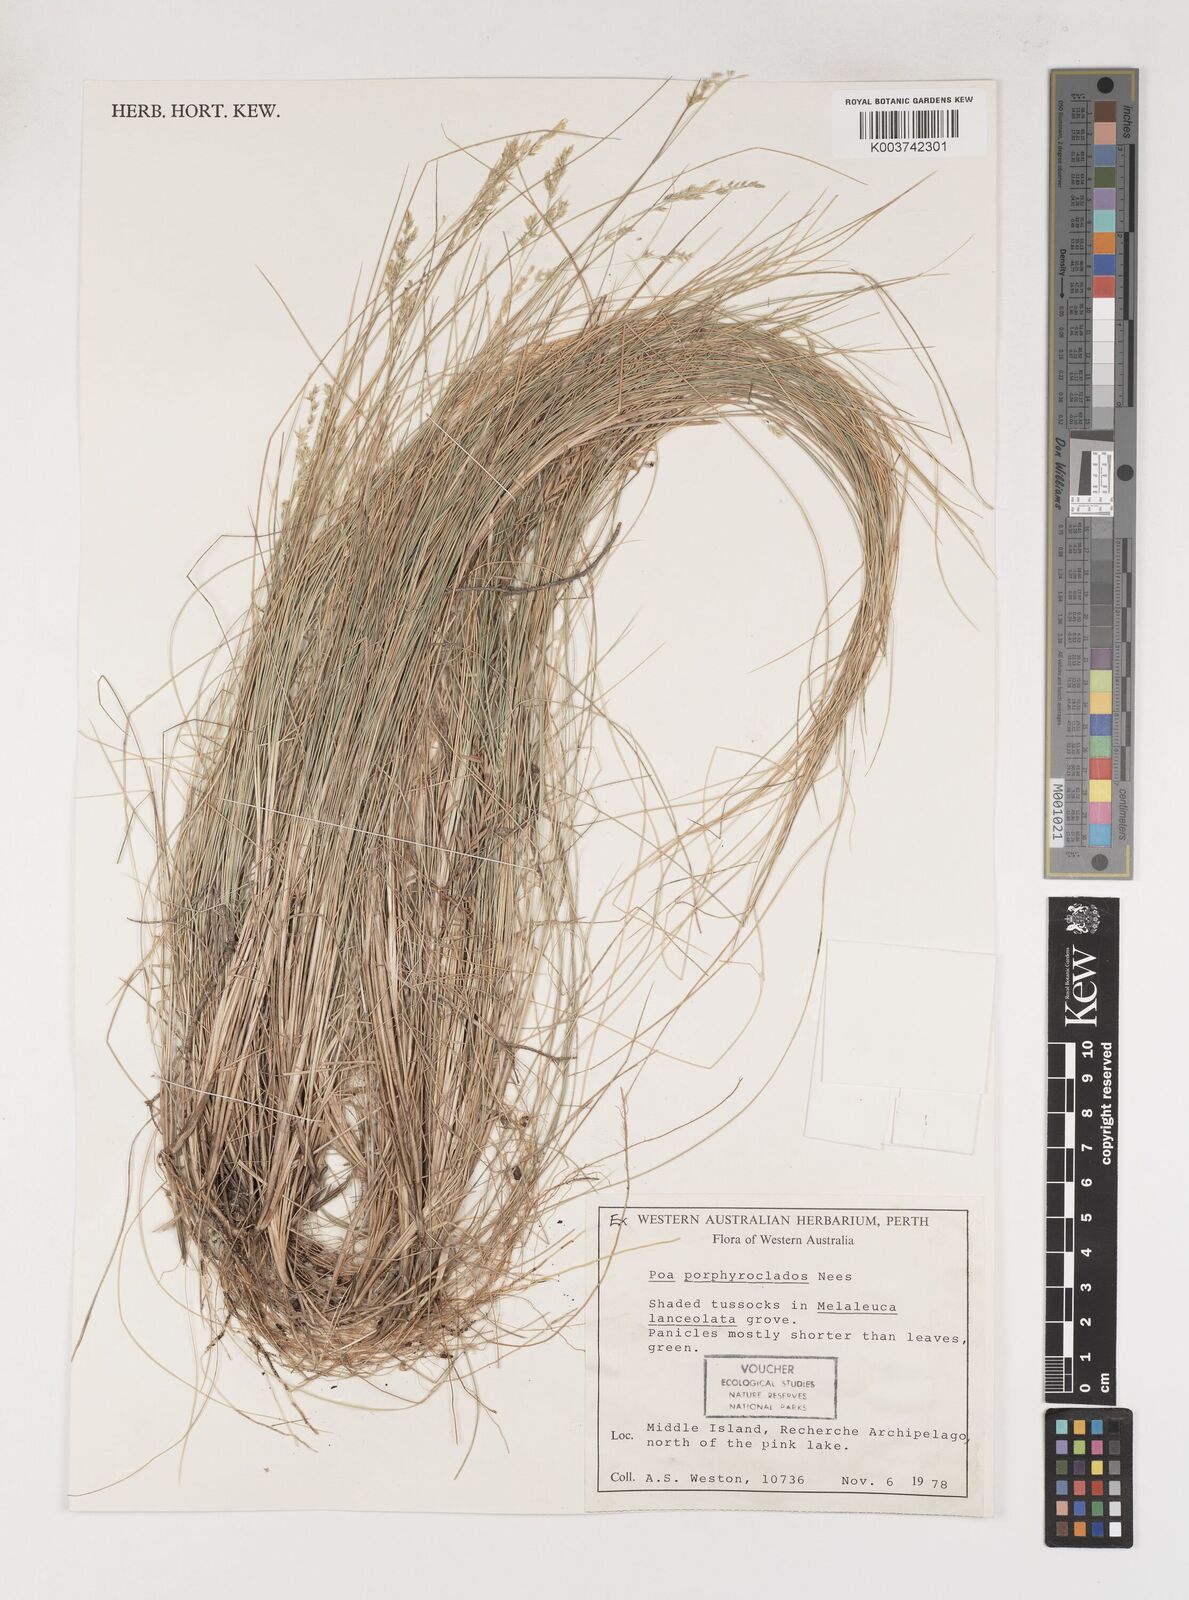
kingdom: Plantae
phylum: Tracheophyta
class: Liliopsida
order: Poales
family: Poaceae
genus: Poa
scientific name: Poa porphyroclados
